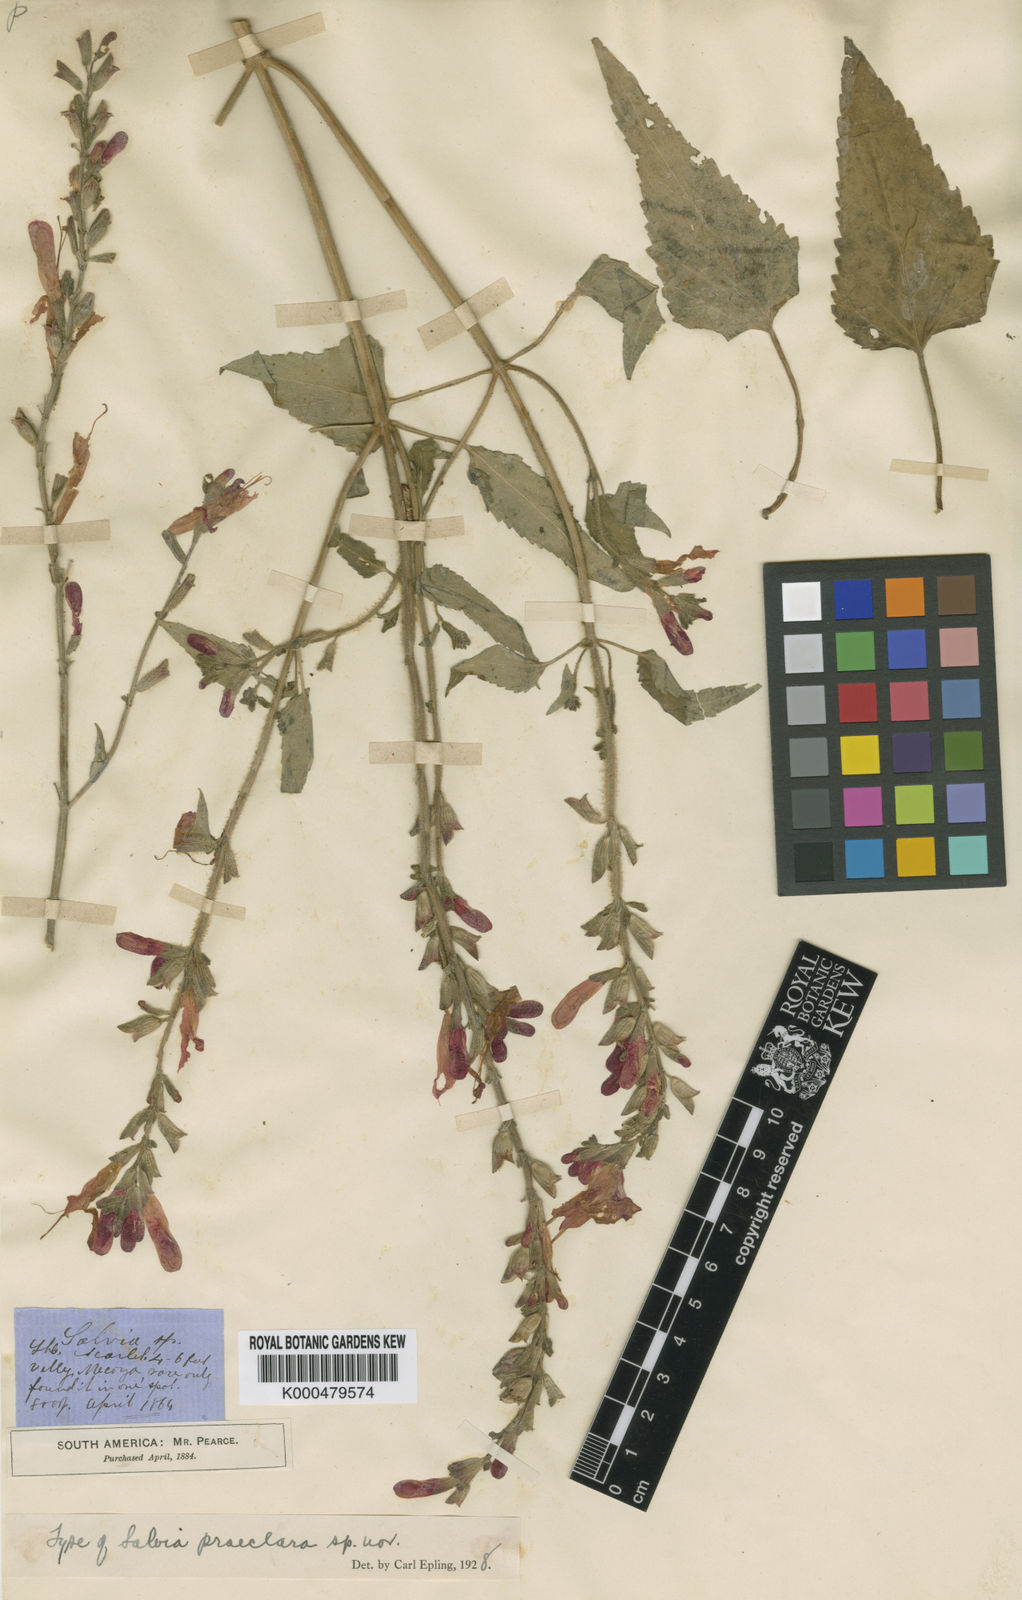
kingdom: Plantae
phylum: Tracheophyta
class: Magnoliopsida
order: Lamiales
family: Lamiaceae
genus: Salvia
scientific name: Salvia exserta
